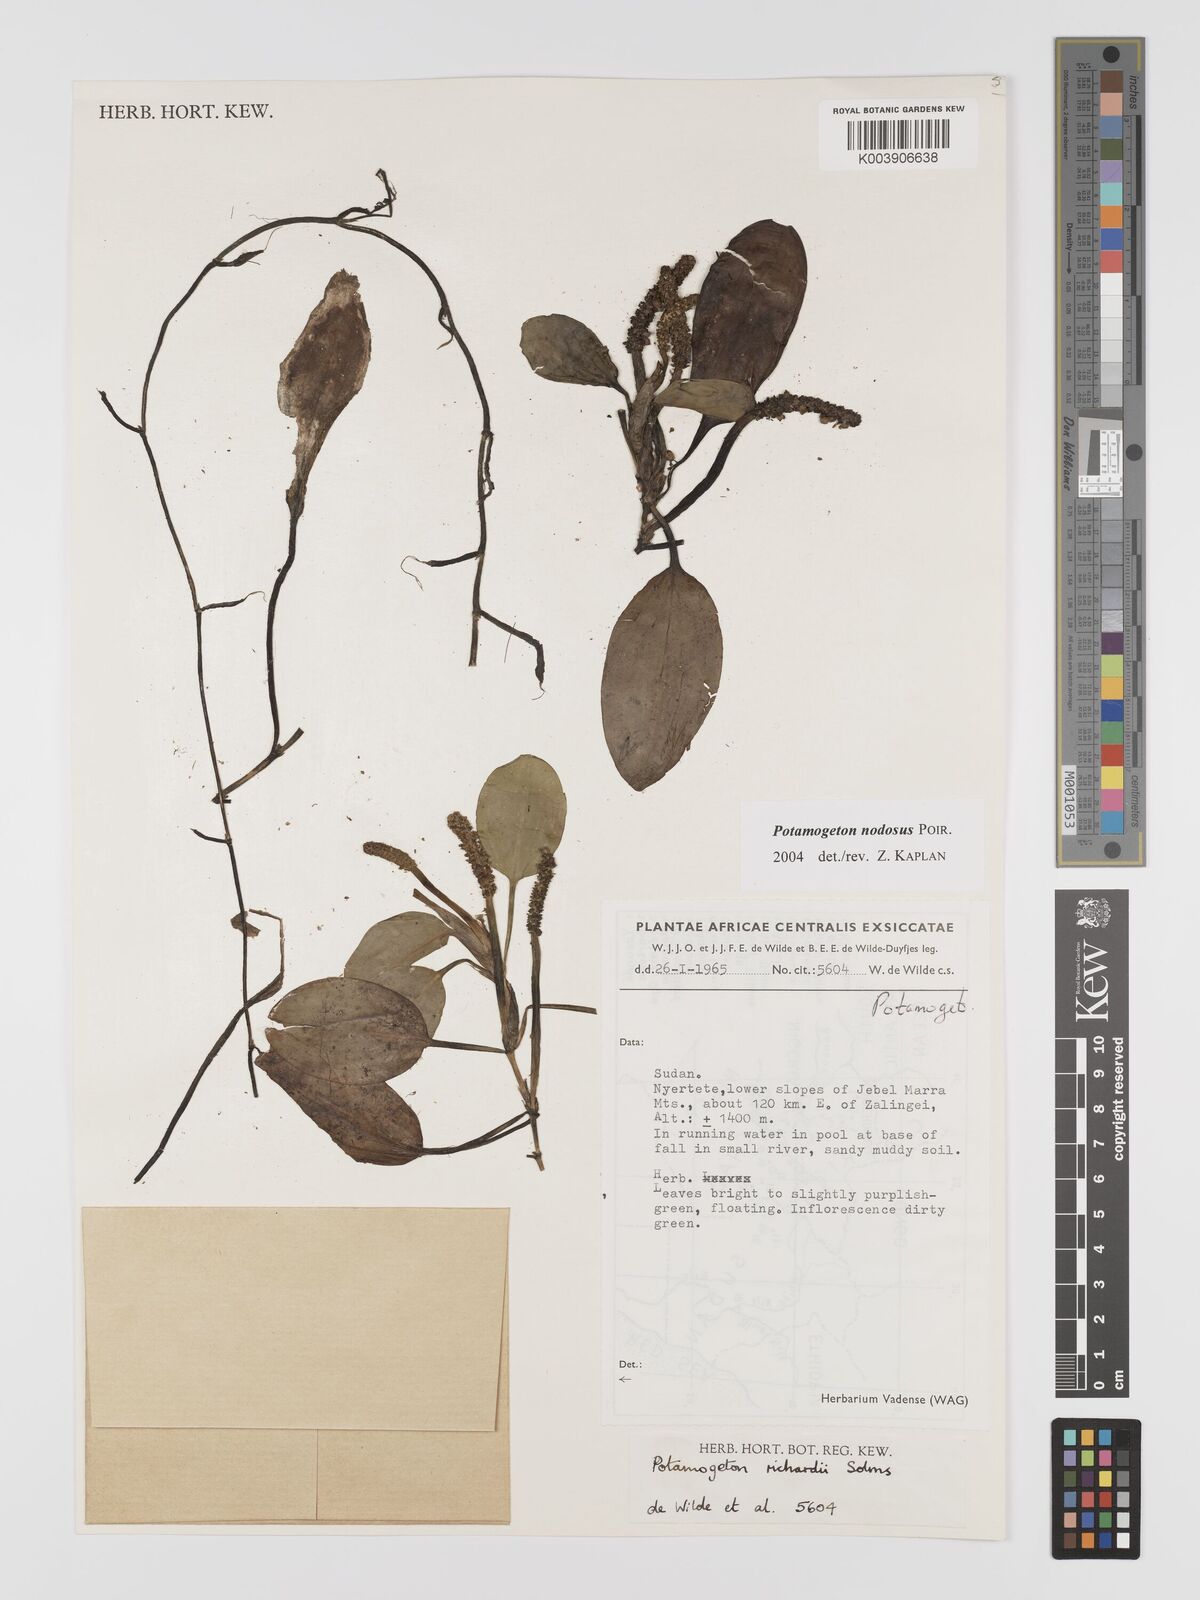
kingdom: Plantae
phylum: Tracheophyta
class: Liliopsida
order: Alismatales
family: Potamogetonaceae
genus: Potamogeton
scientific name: Potamogeton nodosus
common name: Loddon pondweed
